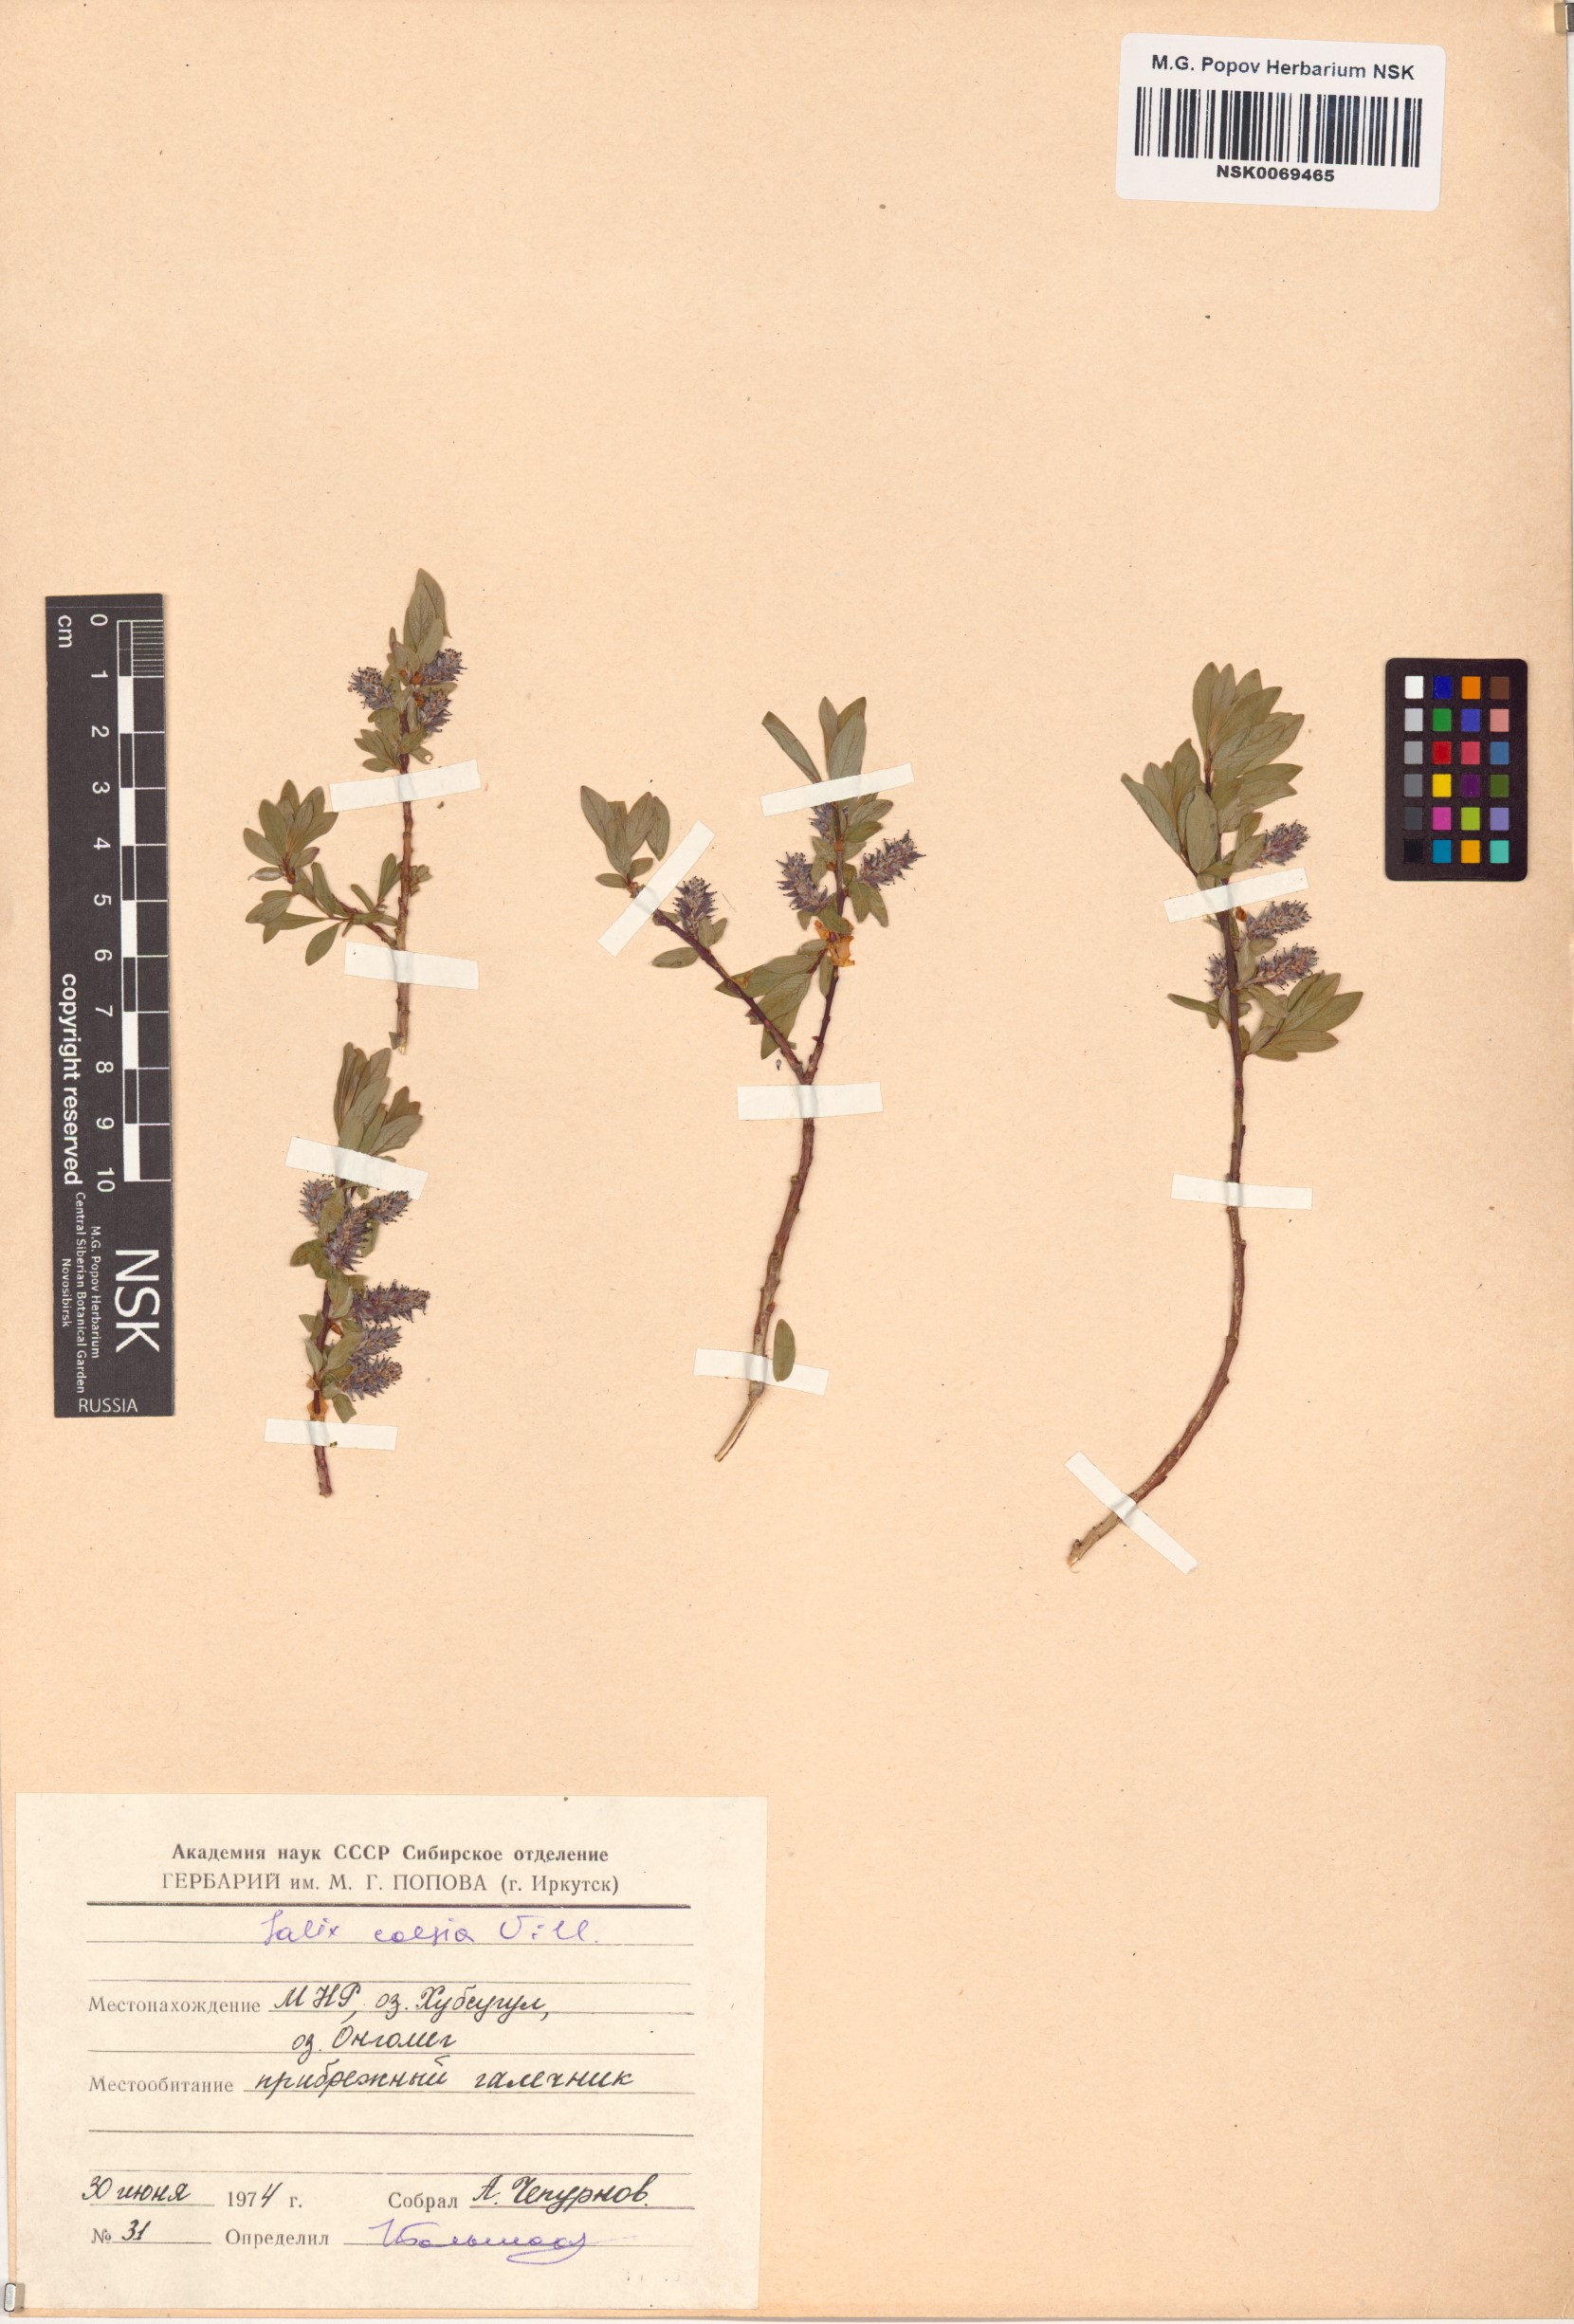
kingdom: Plantae
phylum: Tracheophyta
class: Magnoliopsida
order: Malpighiales
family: Salicaceae
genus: Salix
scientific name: Salix caesia
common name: Blue willow
